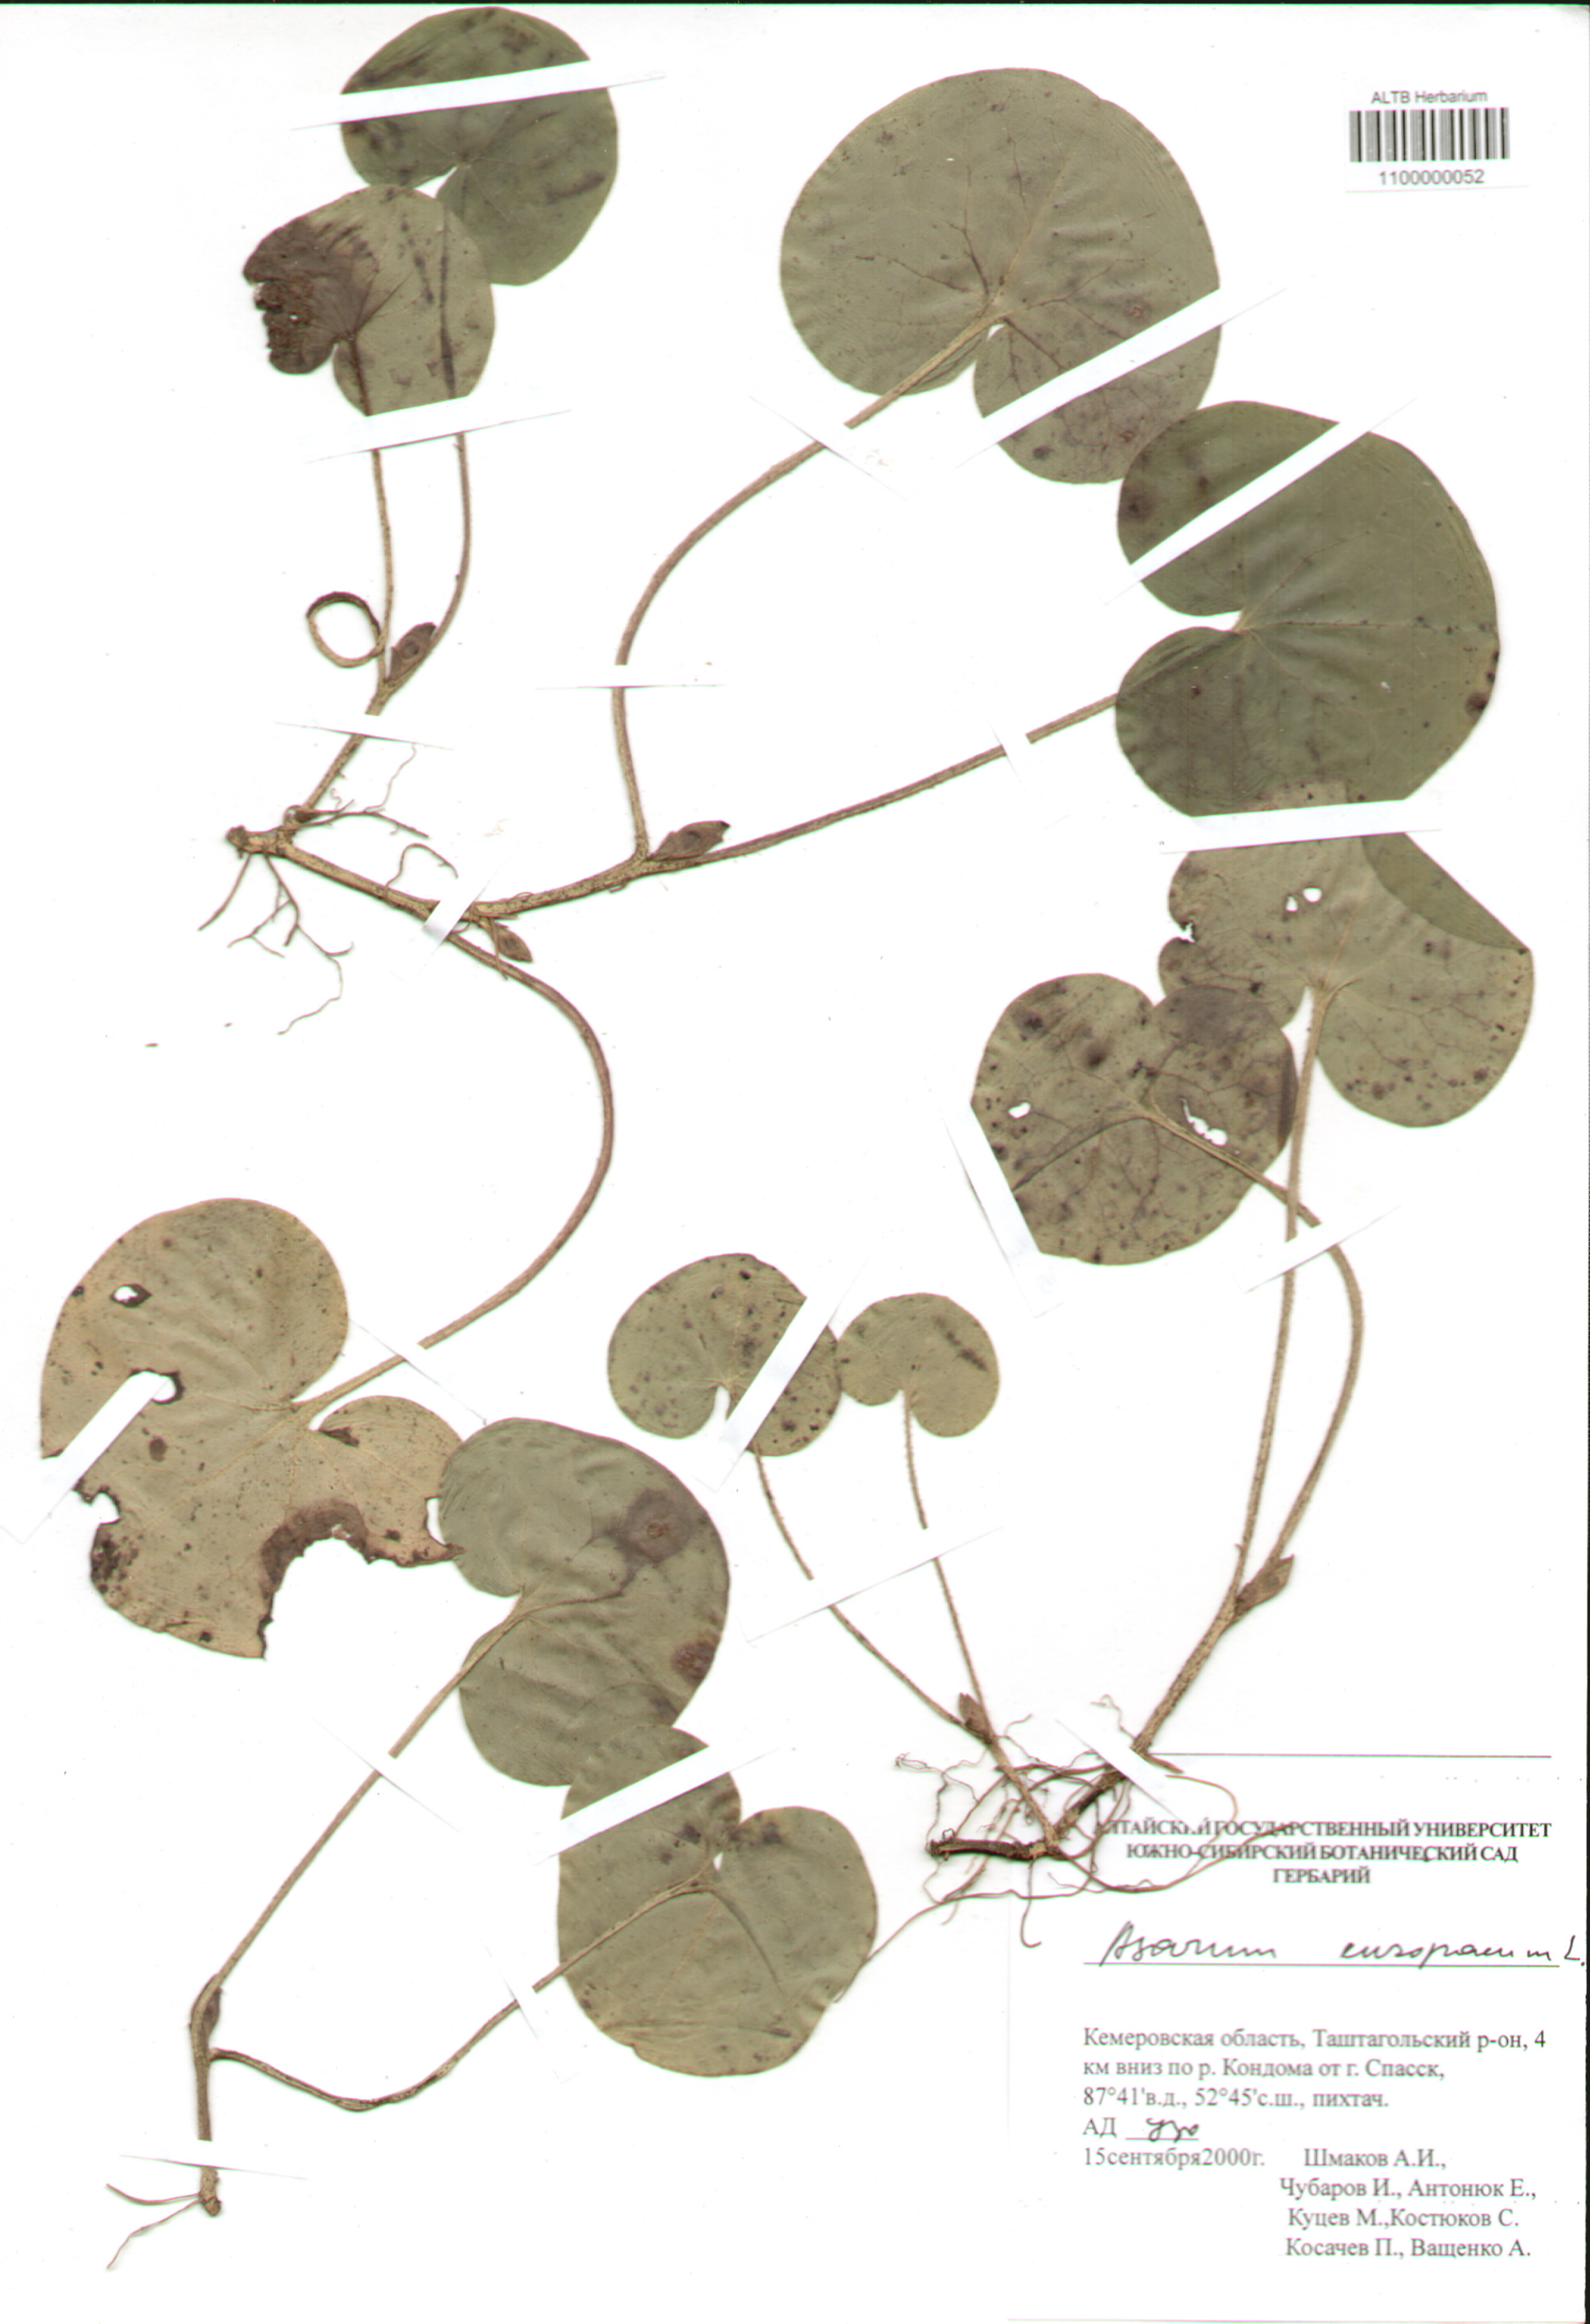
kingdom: Plantae
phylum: Tracheophyta
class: Magnoliopsida
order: Piperales
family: Aristolochiaceae
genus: Asarum
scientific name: Asarum europaeum
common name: Asarabacca
